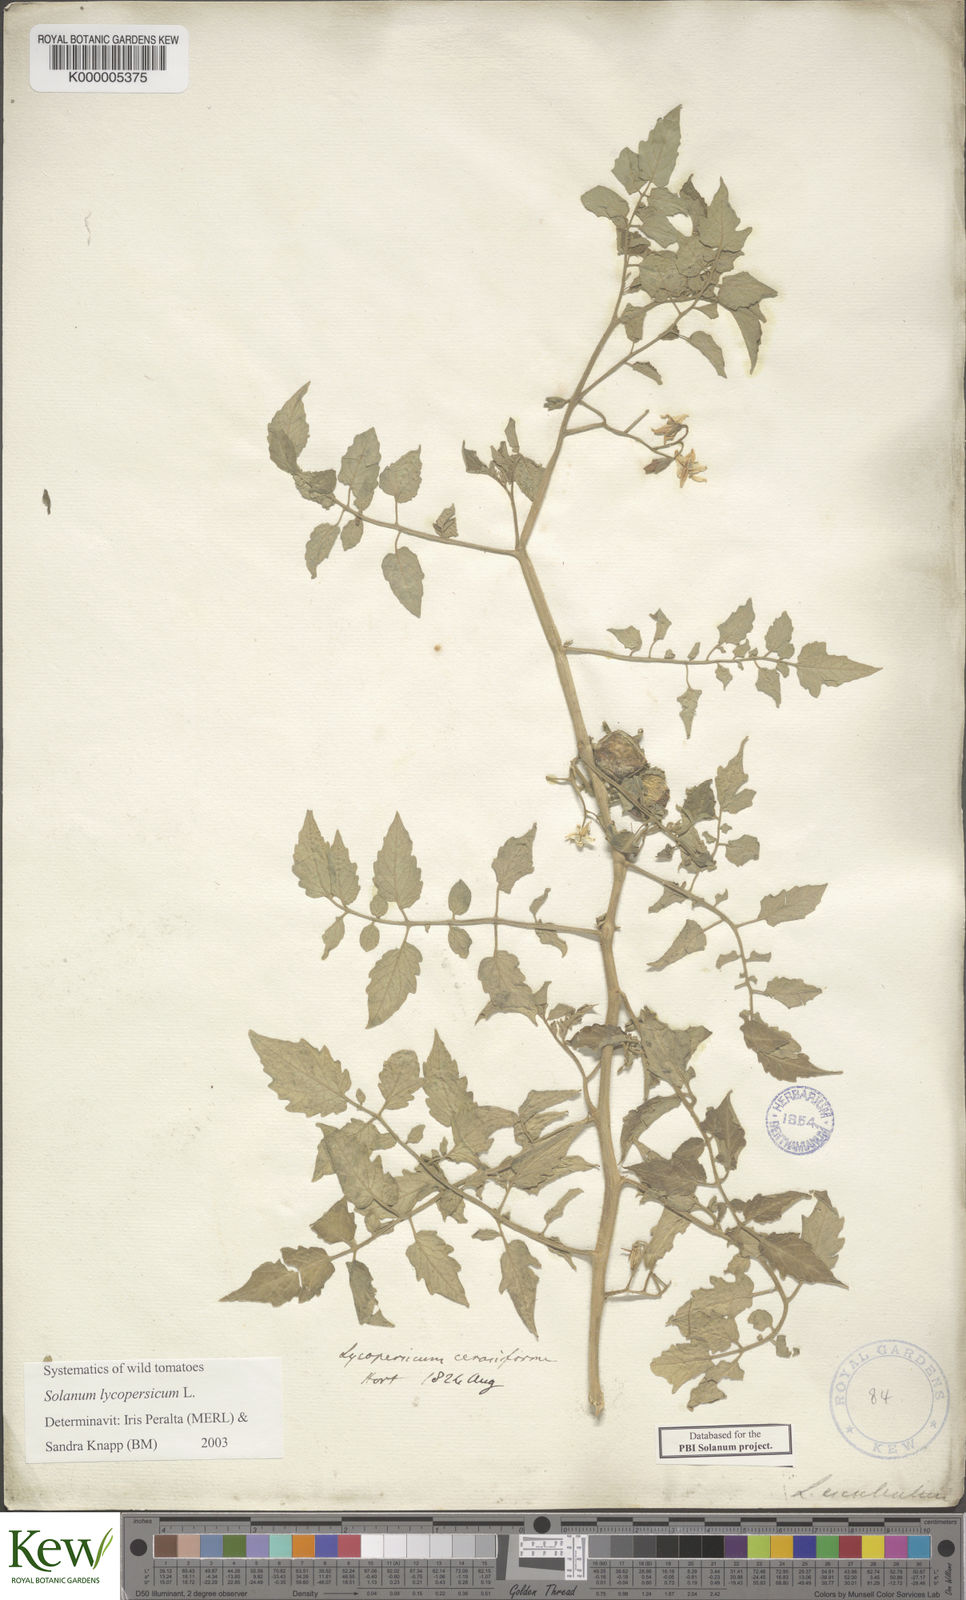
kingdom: Plantae
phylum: Tracheophyta
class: Magnoliopsida
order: Solanales
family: Solanaceae
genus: Solanum
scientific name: Solanum lycopersicum
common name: Garden tomato
